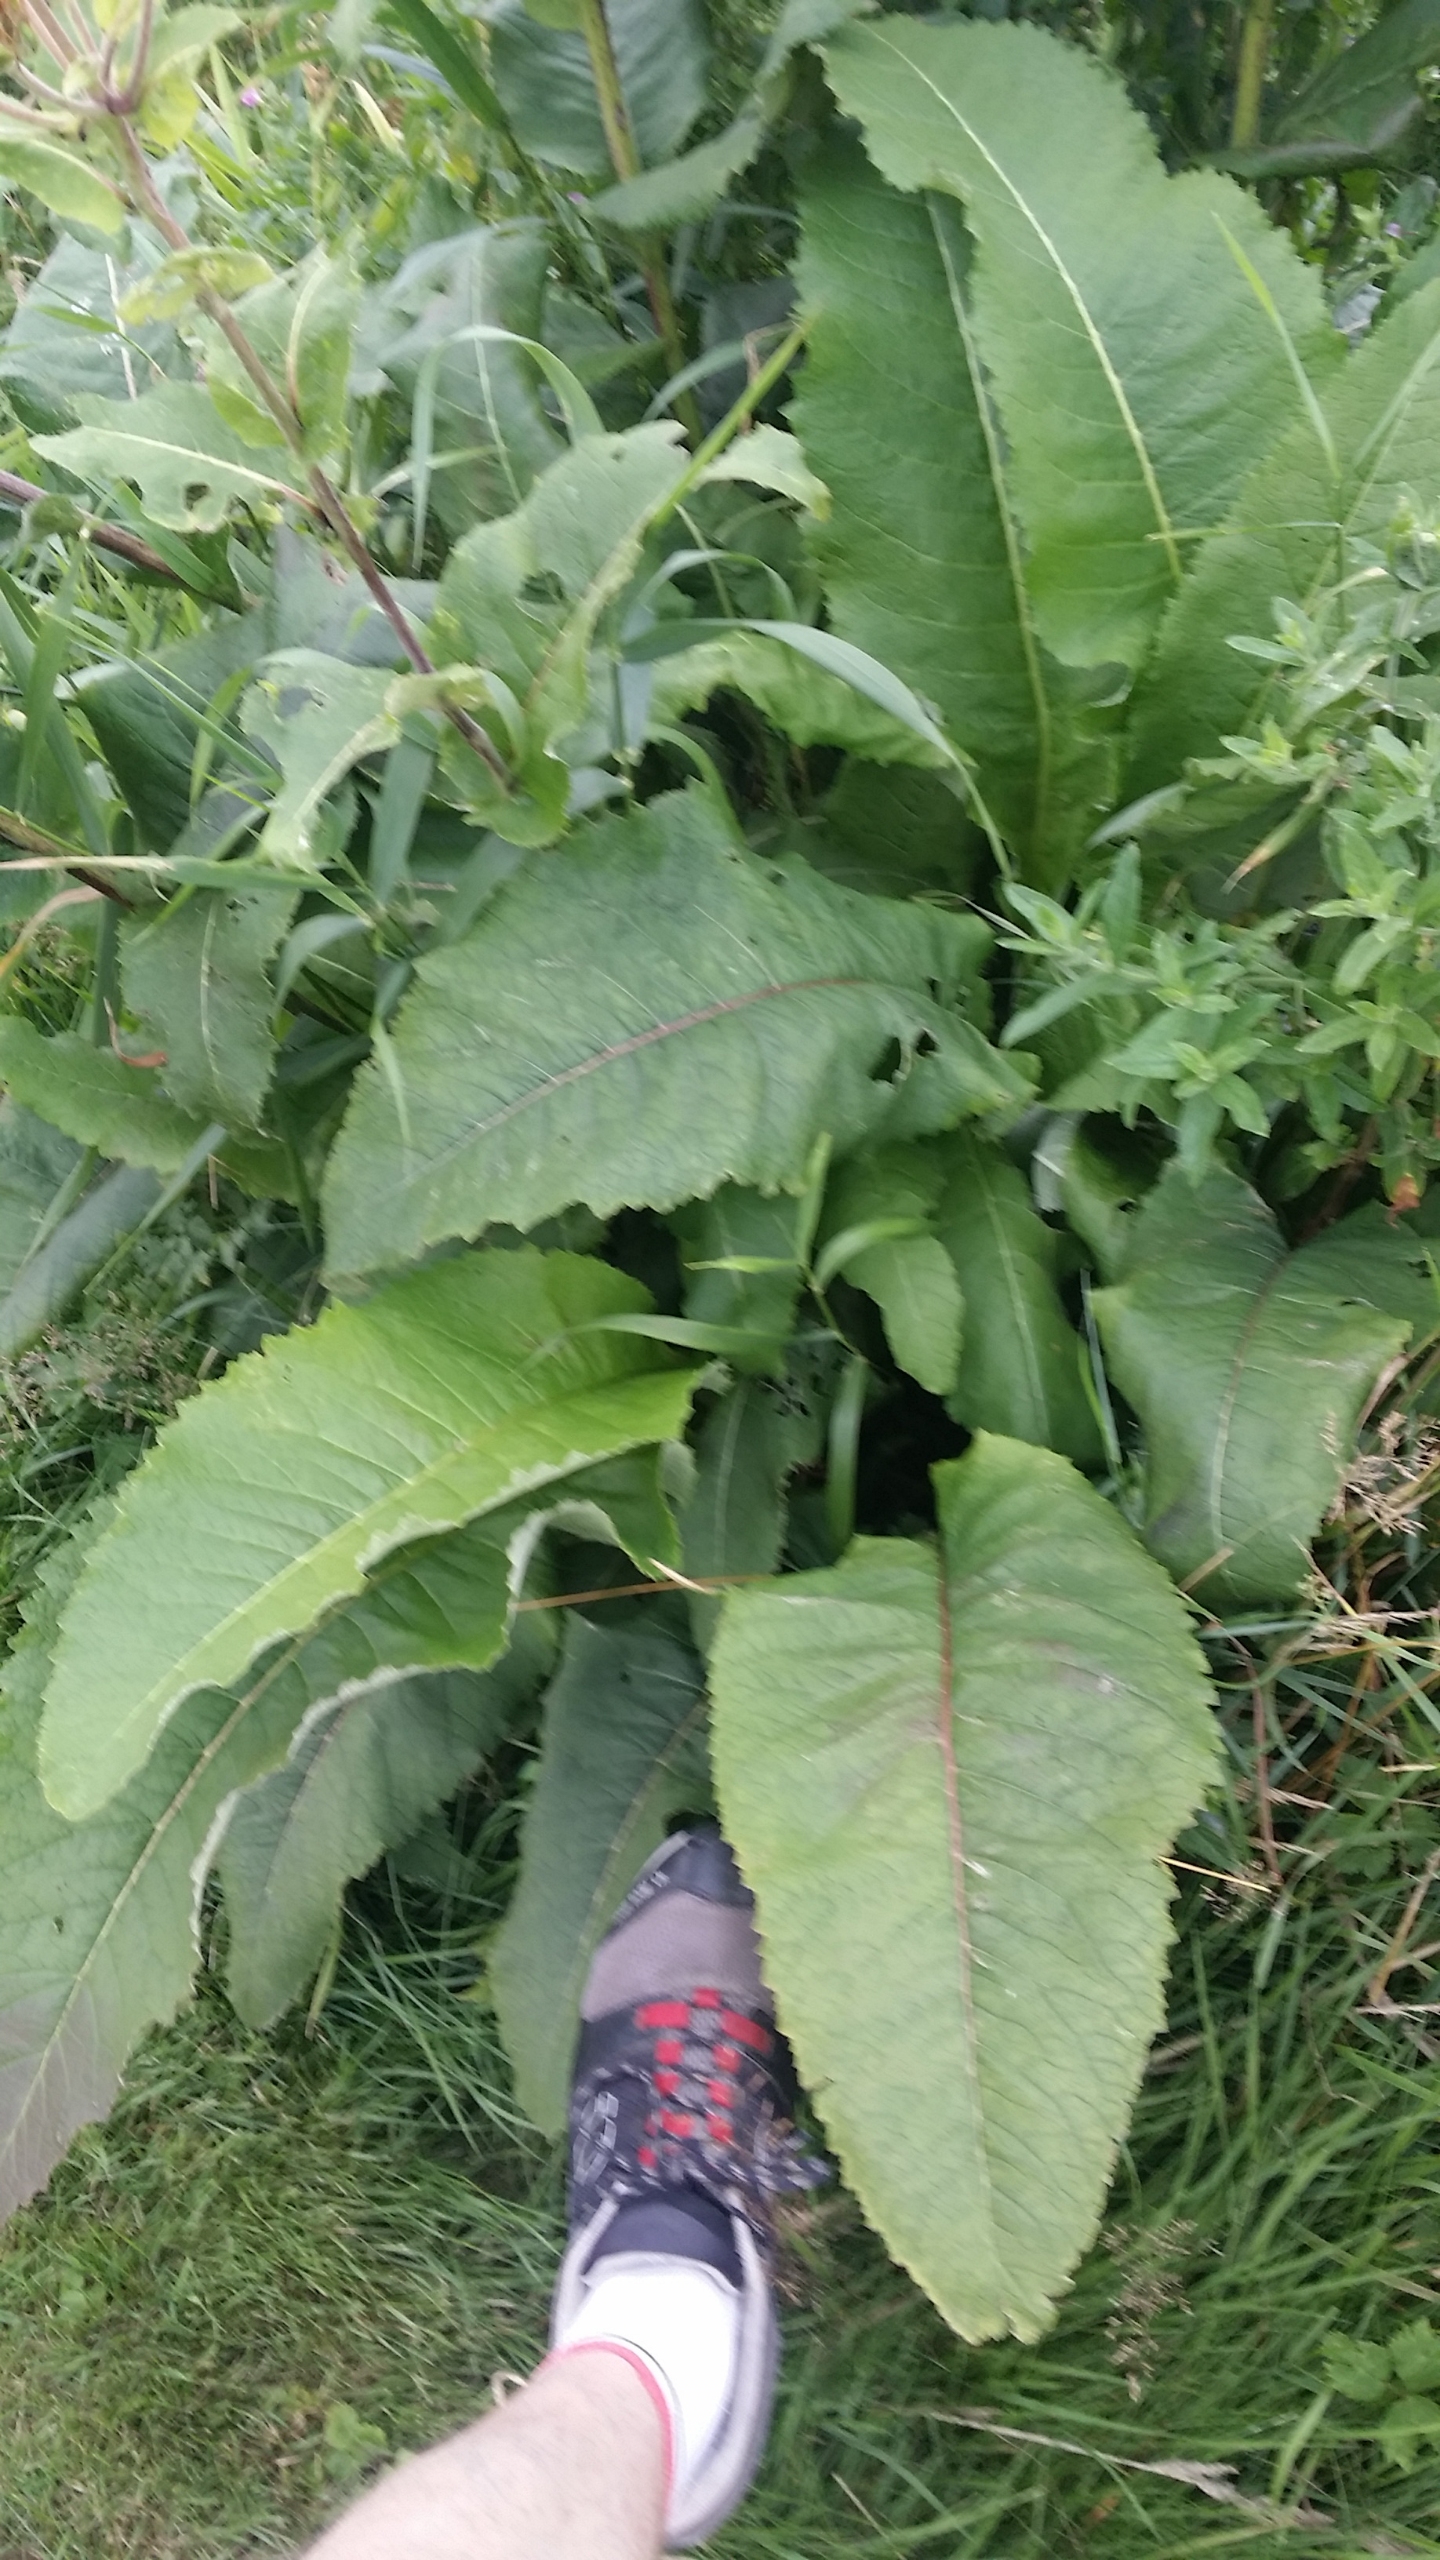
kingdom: Plantae
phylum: Tracheophyta
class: Magnoliopsida
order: Asterales
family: Asteraceae
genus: Inula
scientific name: Inula helenium
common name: Læge-alant
